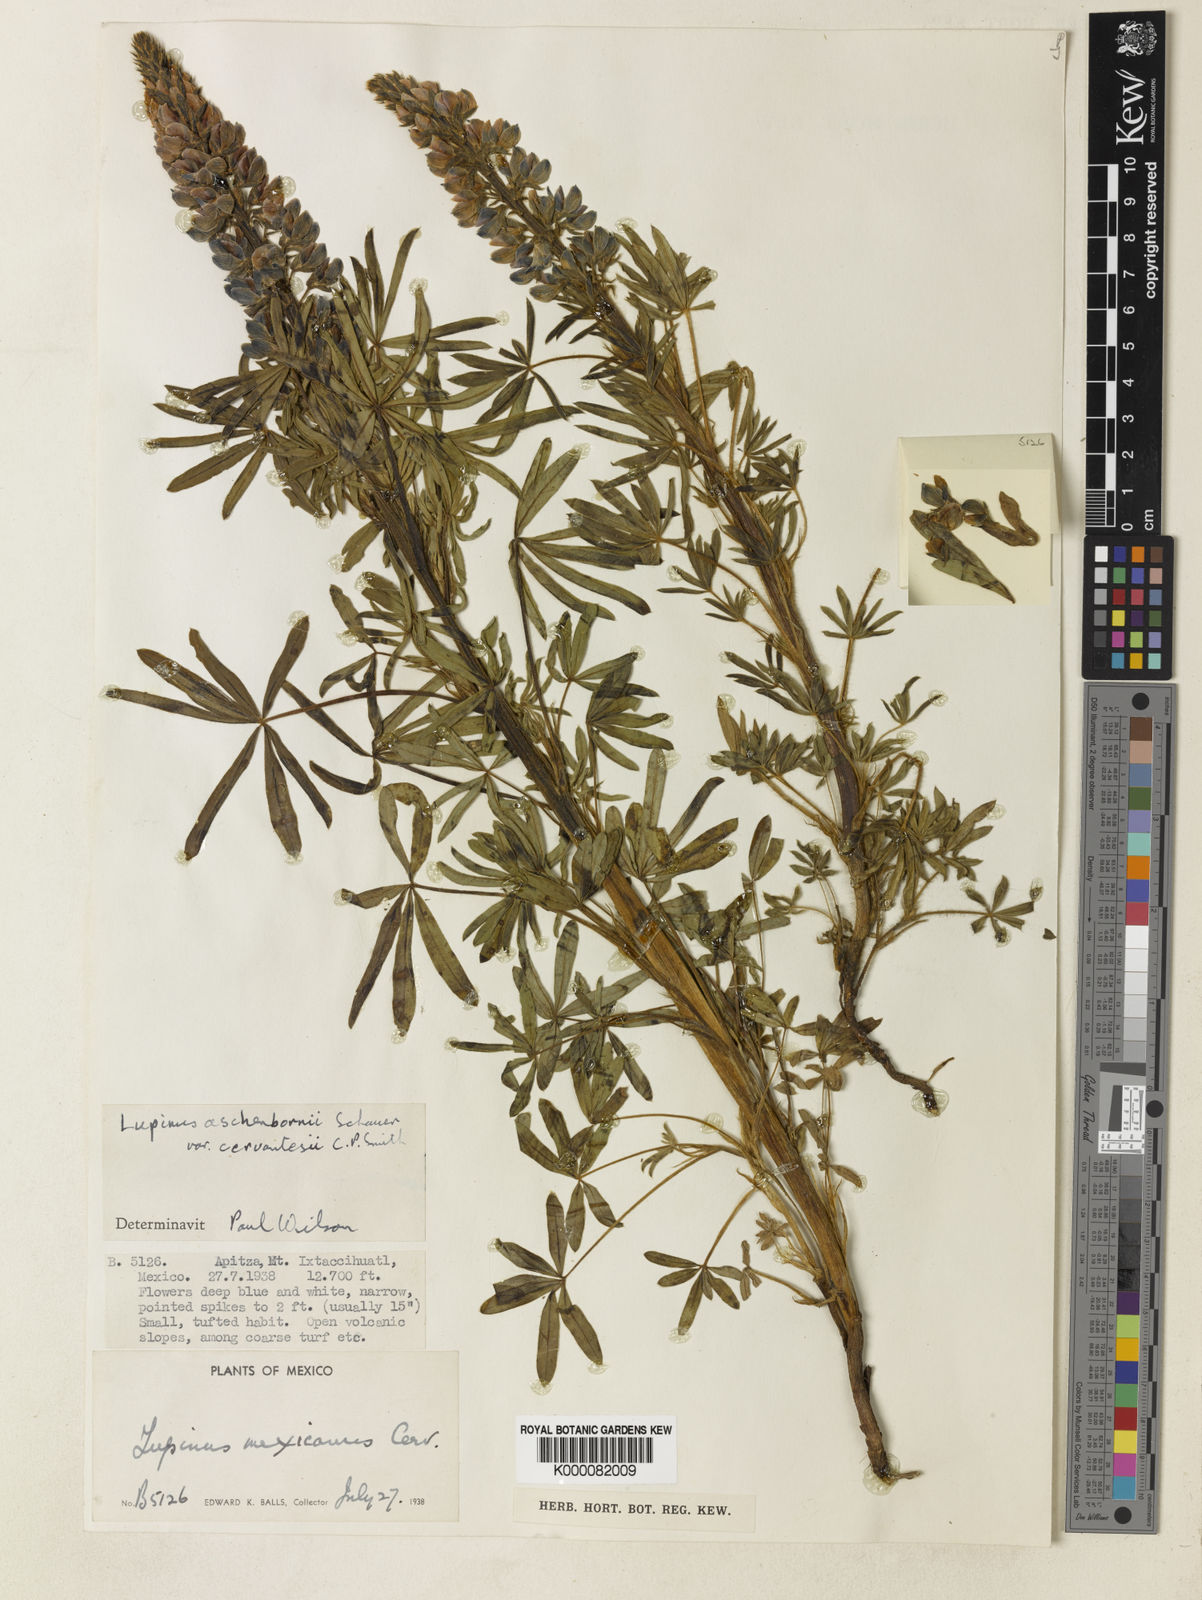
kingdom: Plantae
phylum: Tracheophyta
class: Magnoliopsida
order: Fabales
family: Fabaceae
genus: Lupinus
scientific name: Lupinus aschenbornii
